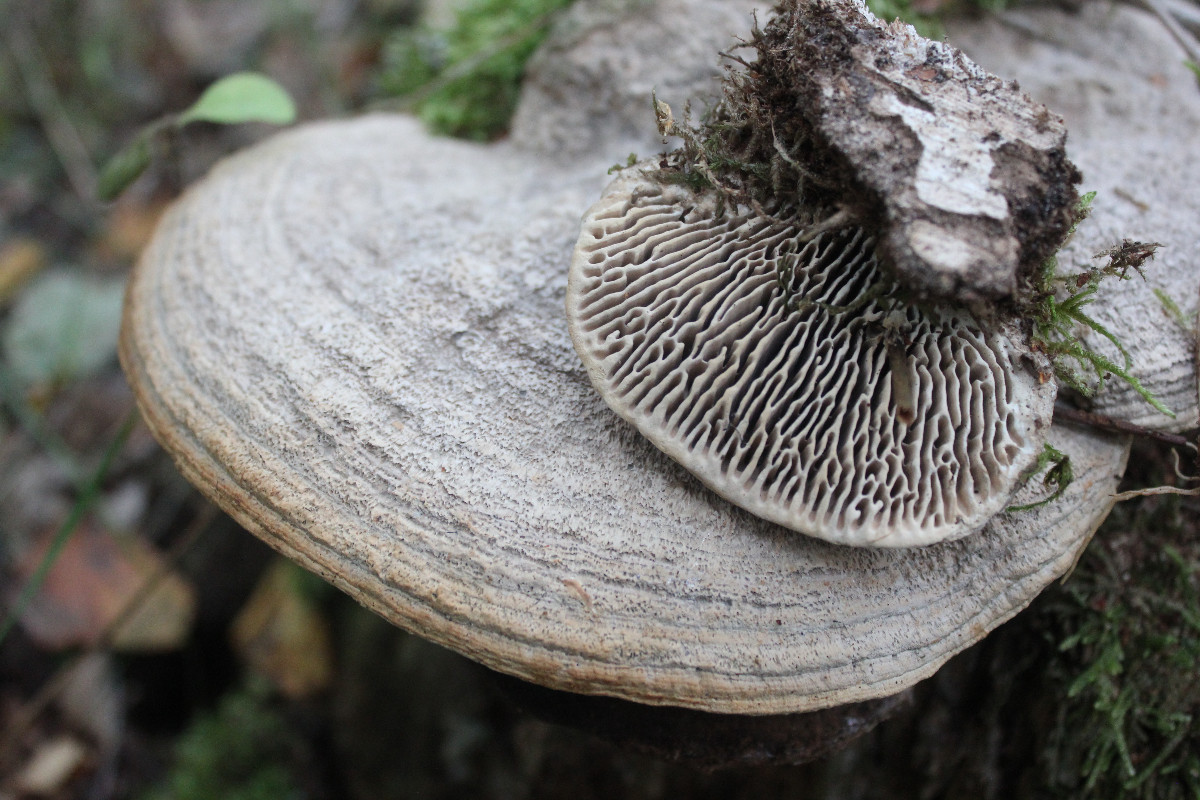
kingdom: Fungi
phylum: Basidiomycota
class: Agaricomycetes
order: Polyporales
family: Fomitopsidaceae
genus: Daedalea
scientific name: Daedalea quercina
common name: ege-labyrintsvamp
